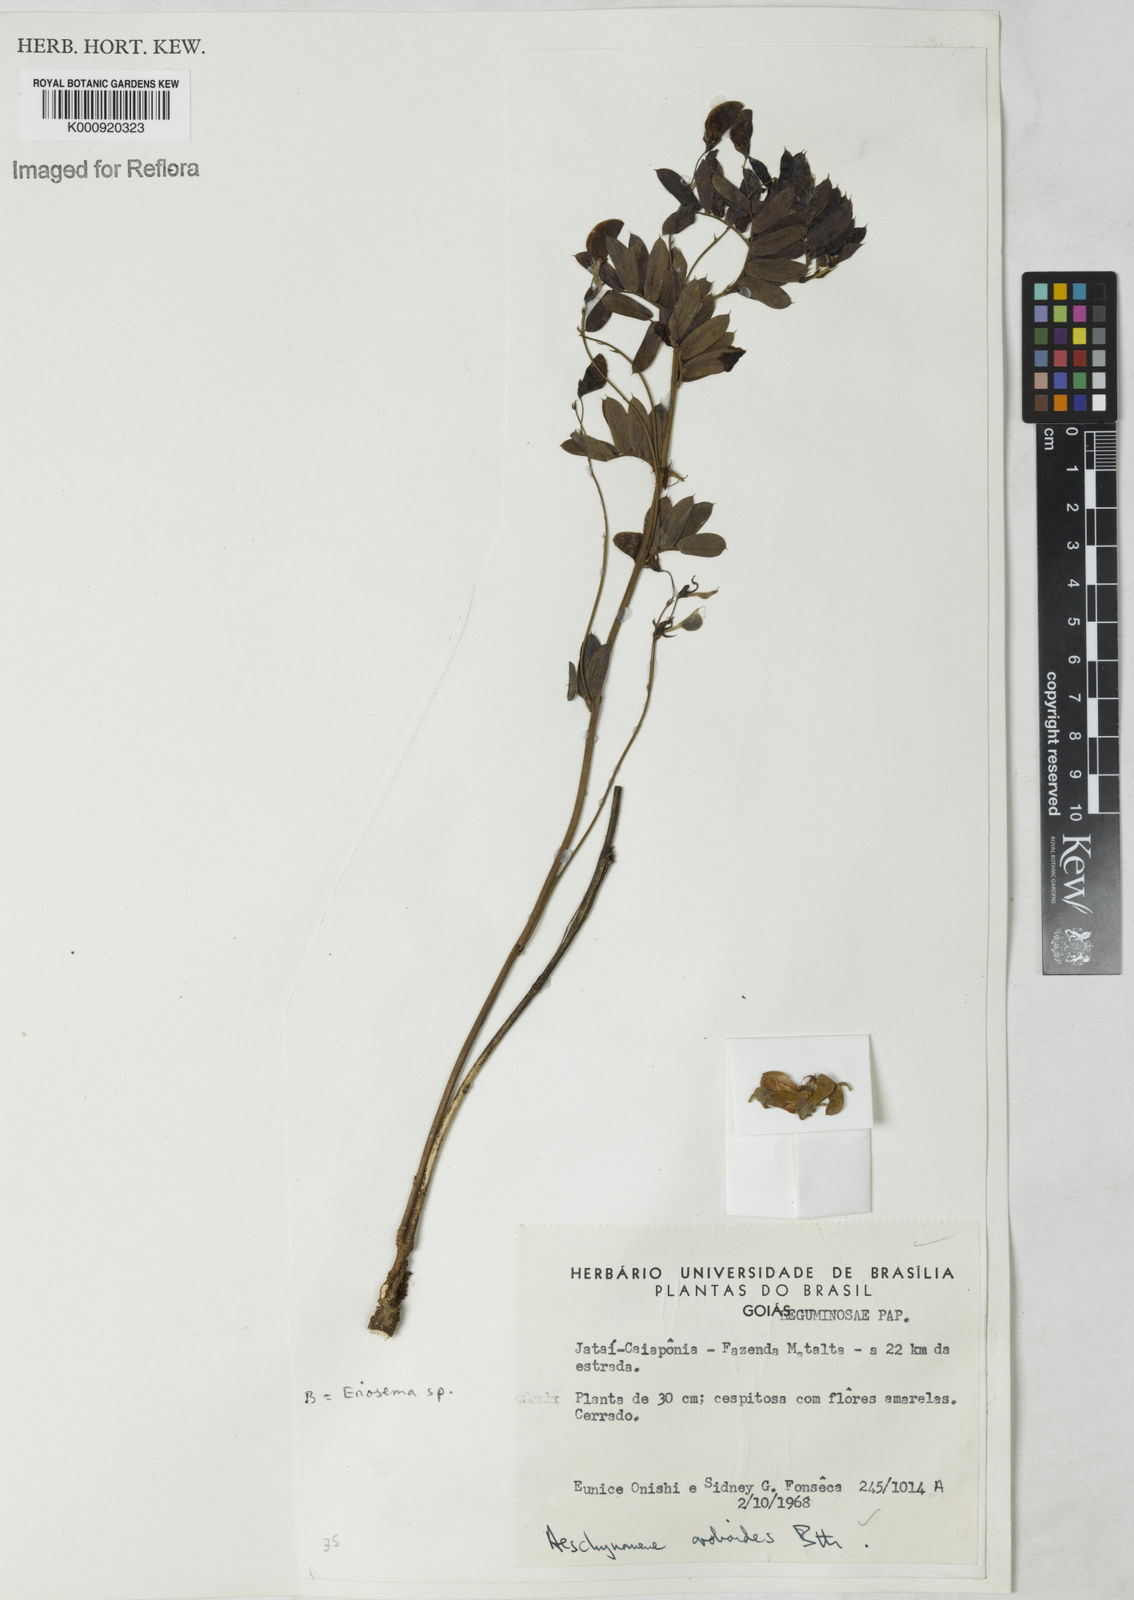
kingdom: Plantae
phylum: Tracheophyta
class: Magnoliopsida
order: Fabales
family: Fabaceae
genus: Ctenodon
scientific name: Ctenodon oroboides
